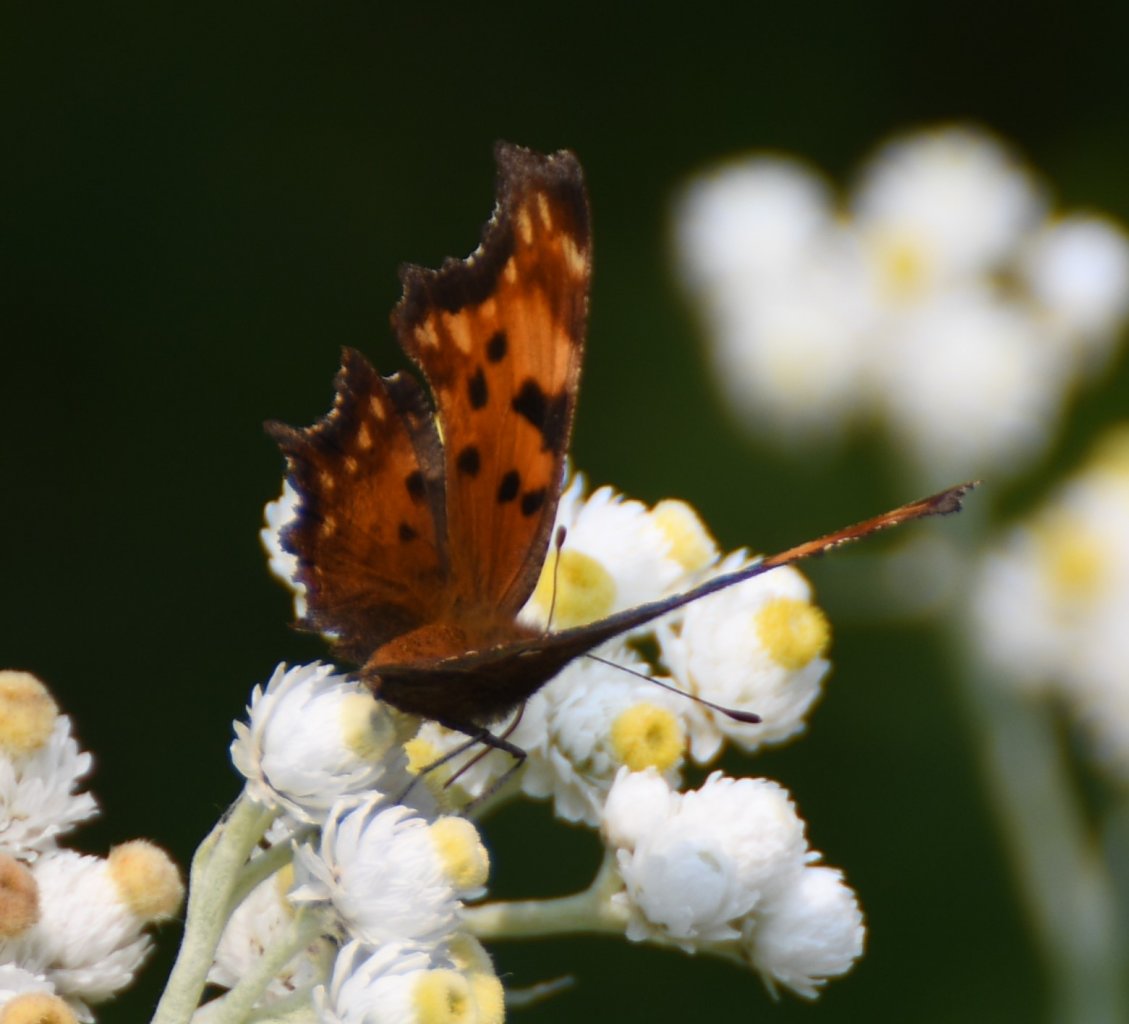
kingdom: Animalia
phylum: Arthropoda
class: Insecta
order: Lepidoptera
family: Nymphalidae
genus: Polygonia
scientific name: Polygonia gracilis
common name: Hoary Comma
